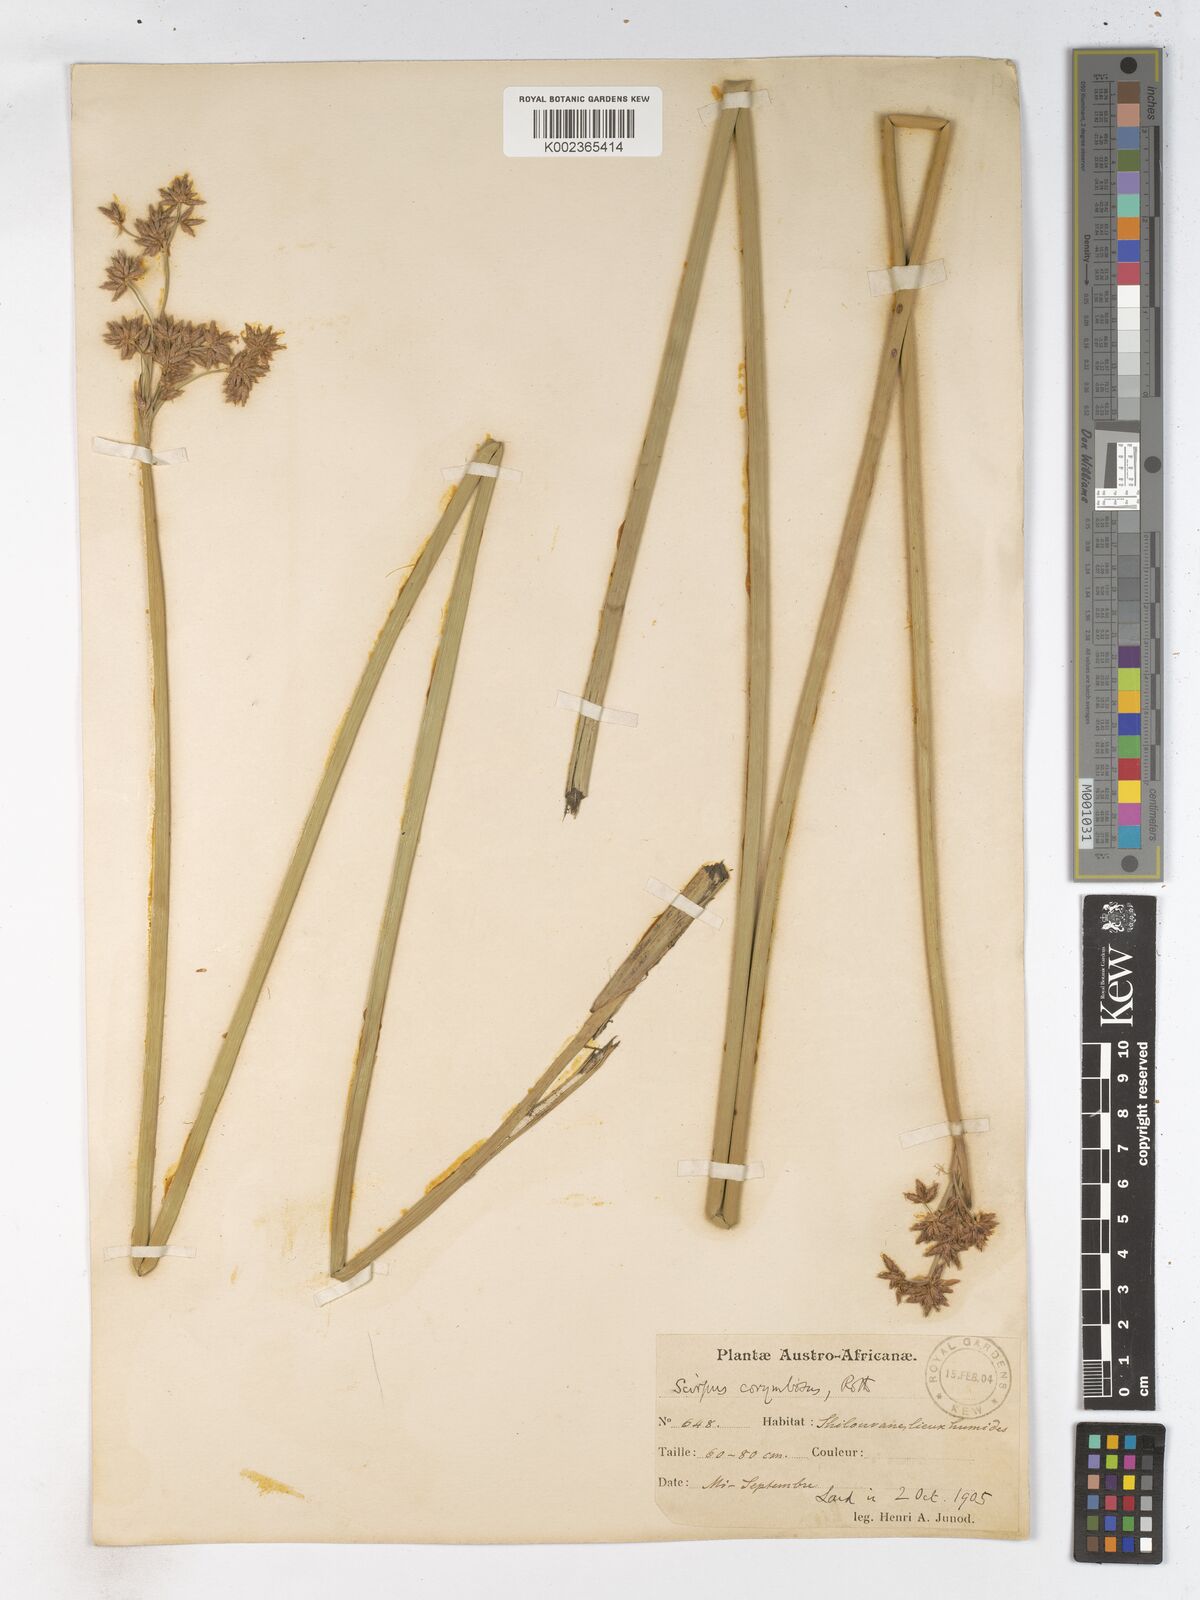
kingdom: Plantae
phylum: Tracheophyta
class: Liliopsida
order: Poales
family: Cyperaceae
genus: Schoenoplectiella
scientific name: Schoenoplectiella brachyceras
